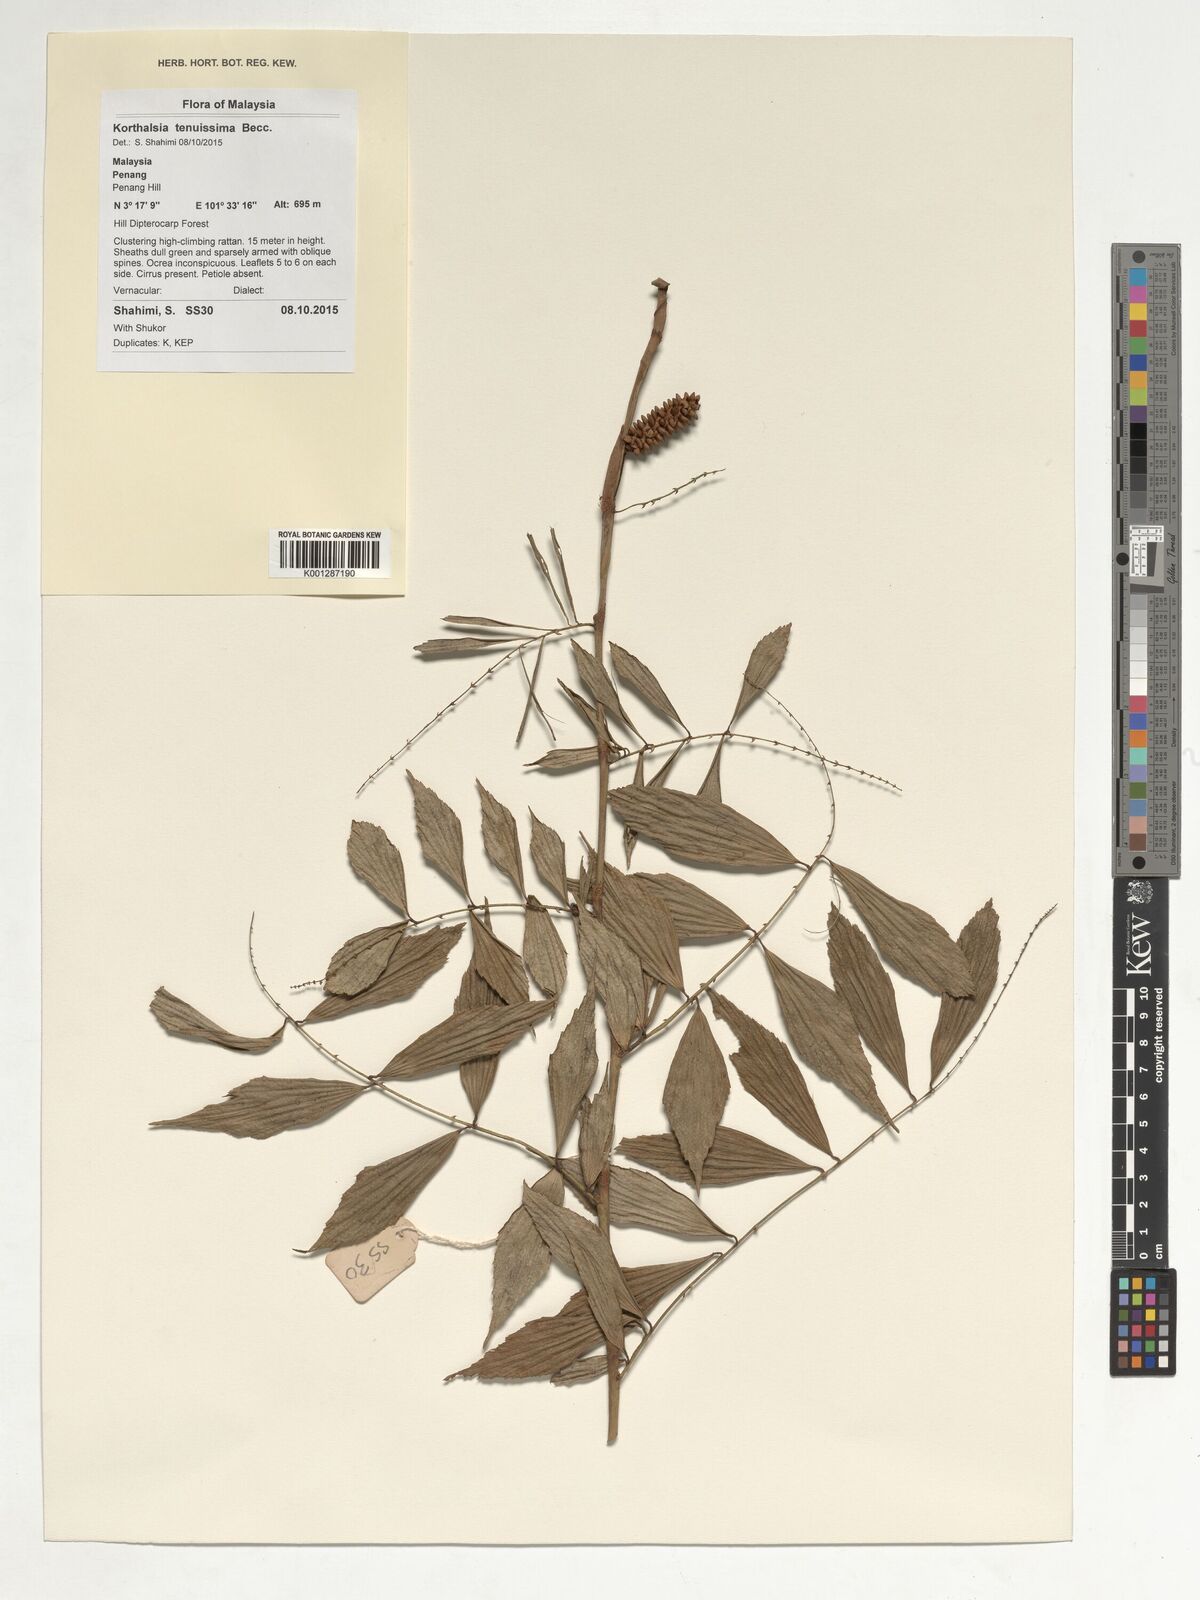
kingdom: Plantae
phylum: Tracheophyta
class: Liliopsida
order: Arecales
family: Arecaceae
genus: Korthalsia
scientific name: Korthalsia tenuissima
